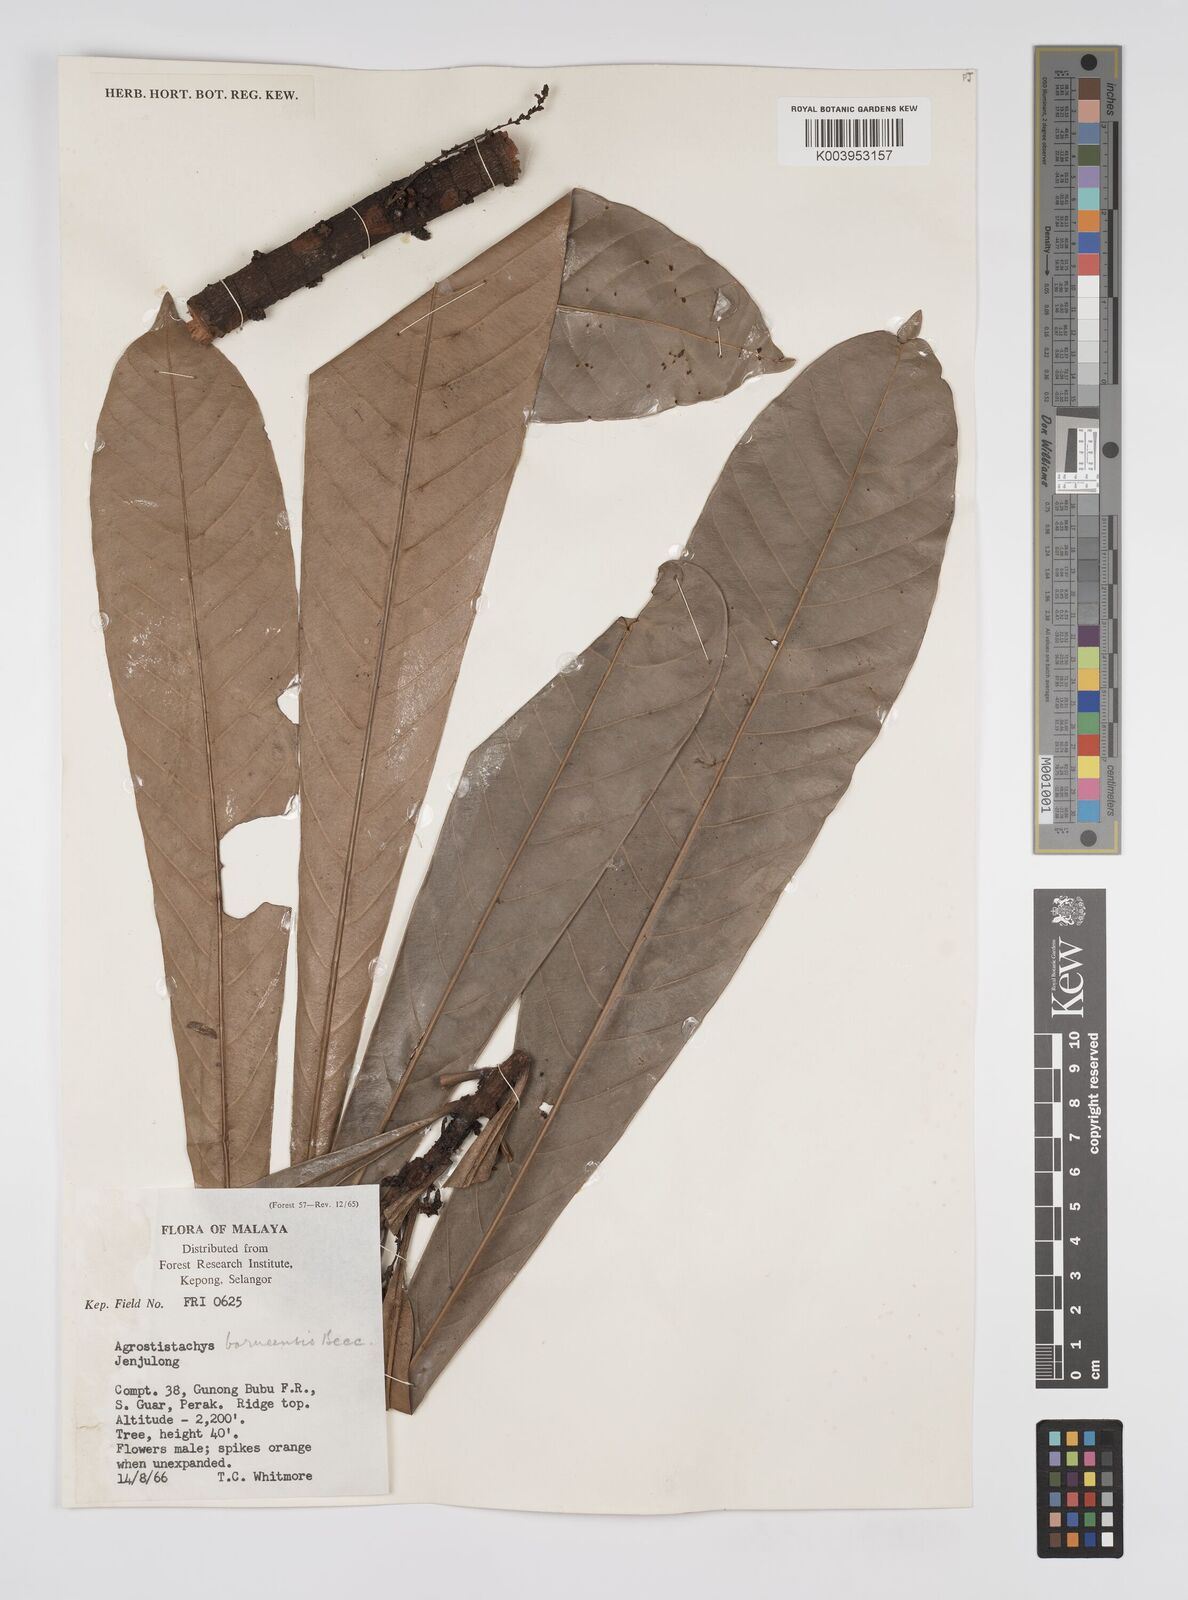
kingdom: Plantae
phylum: Tracheophyta
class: Magnoliopsida
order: Malpighiales
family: Euphorbiaceae
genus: Agrostistachys
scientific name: Agrostistachys borneensis
